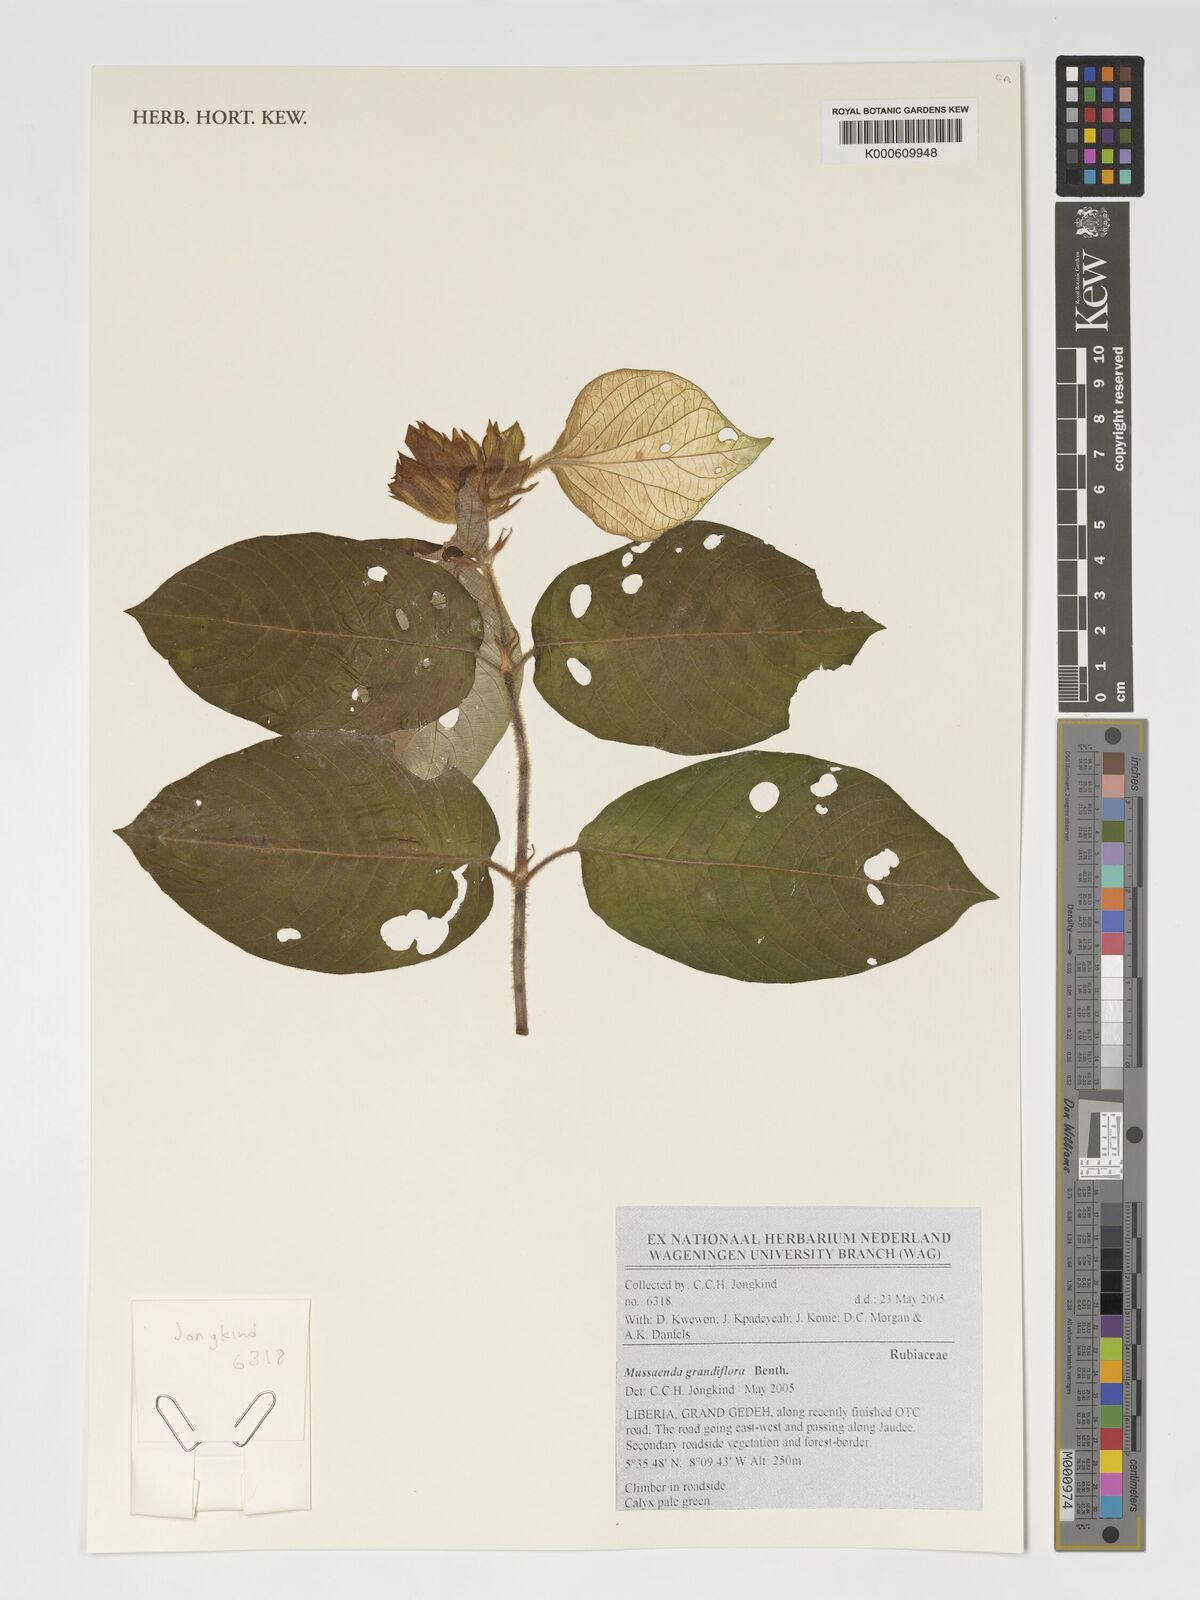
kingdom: Plantae
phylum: Tracheophyta
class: Magnoliopsida
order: Gentianales
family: Rubiaceae
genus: Mussaenda
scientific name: Mussaenda grandiflora
